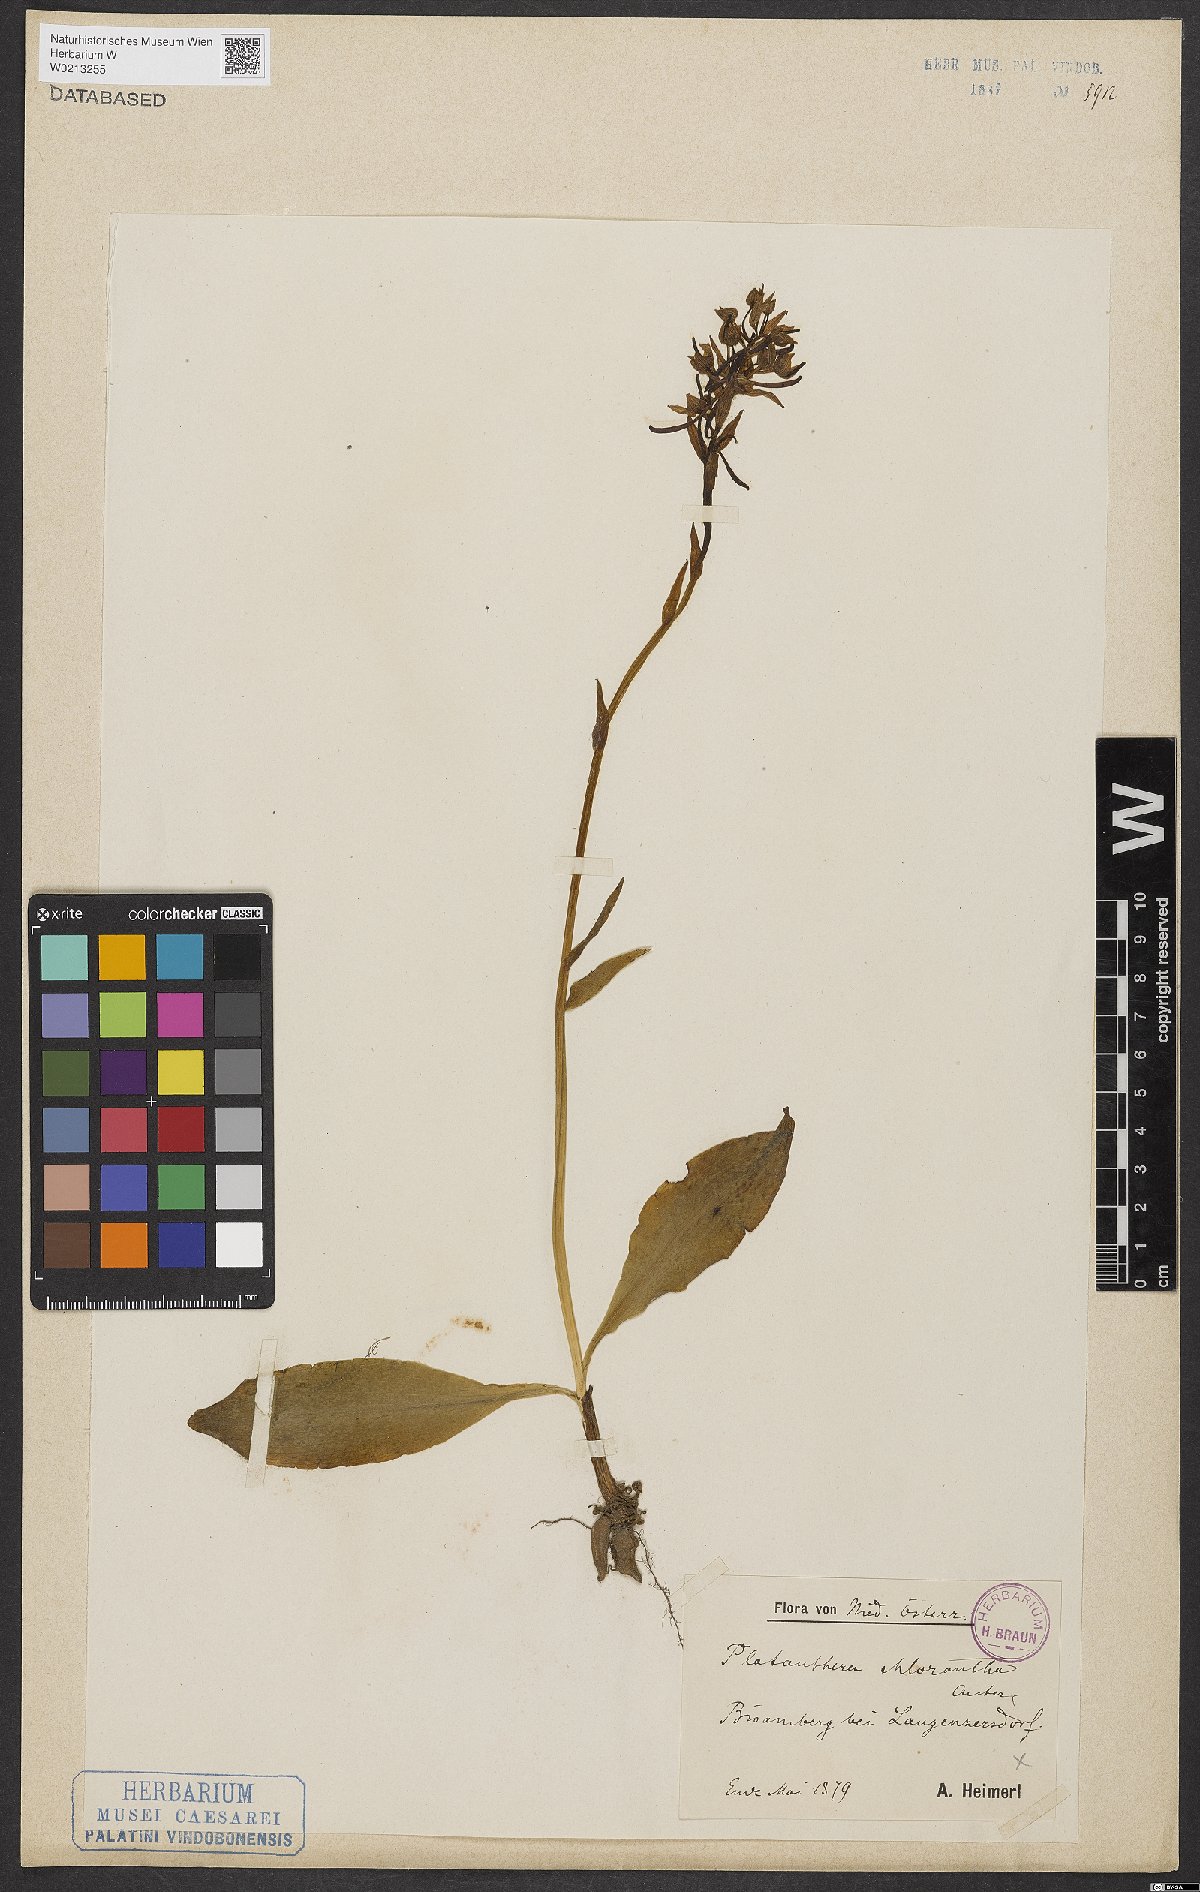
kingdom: Plantae
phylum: Tracheophyta
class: Liliopsida
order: Asparagales
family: Orchidaceae
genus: Platanthera
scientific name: Platanthera chlorantha
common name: Greater butterfly-orchid
